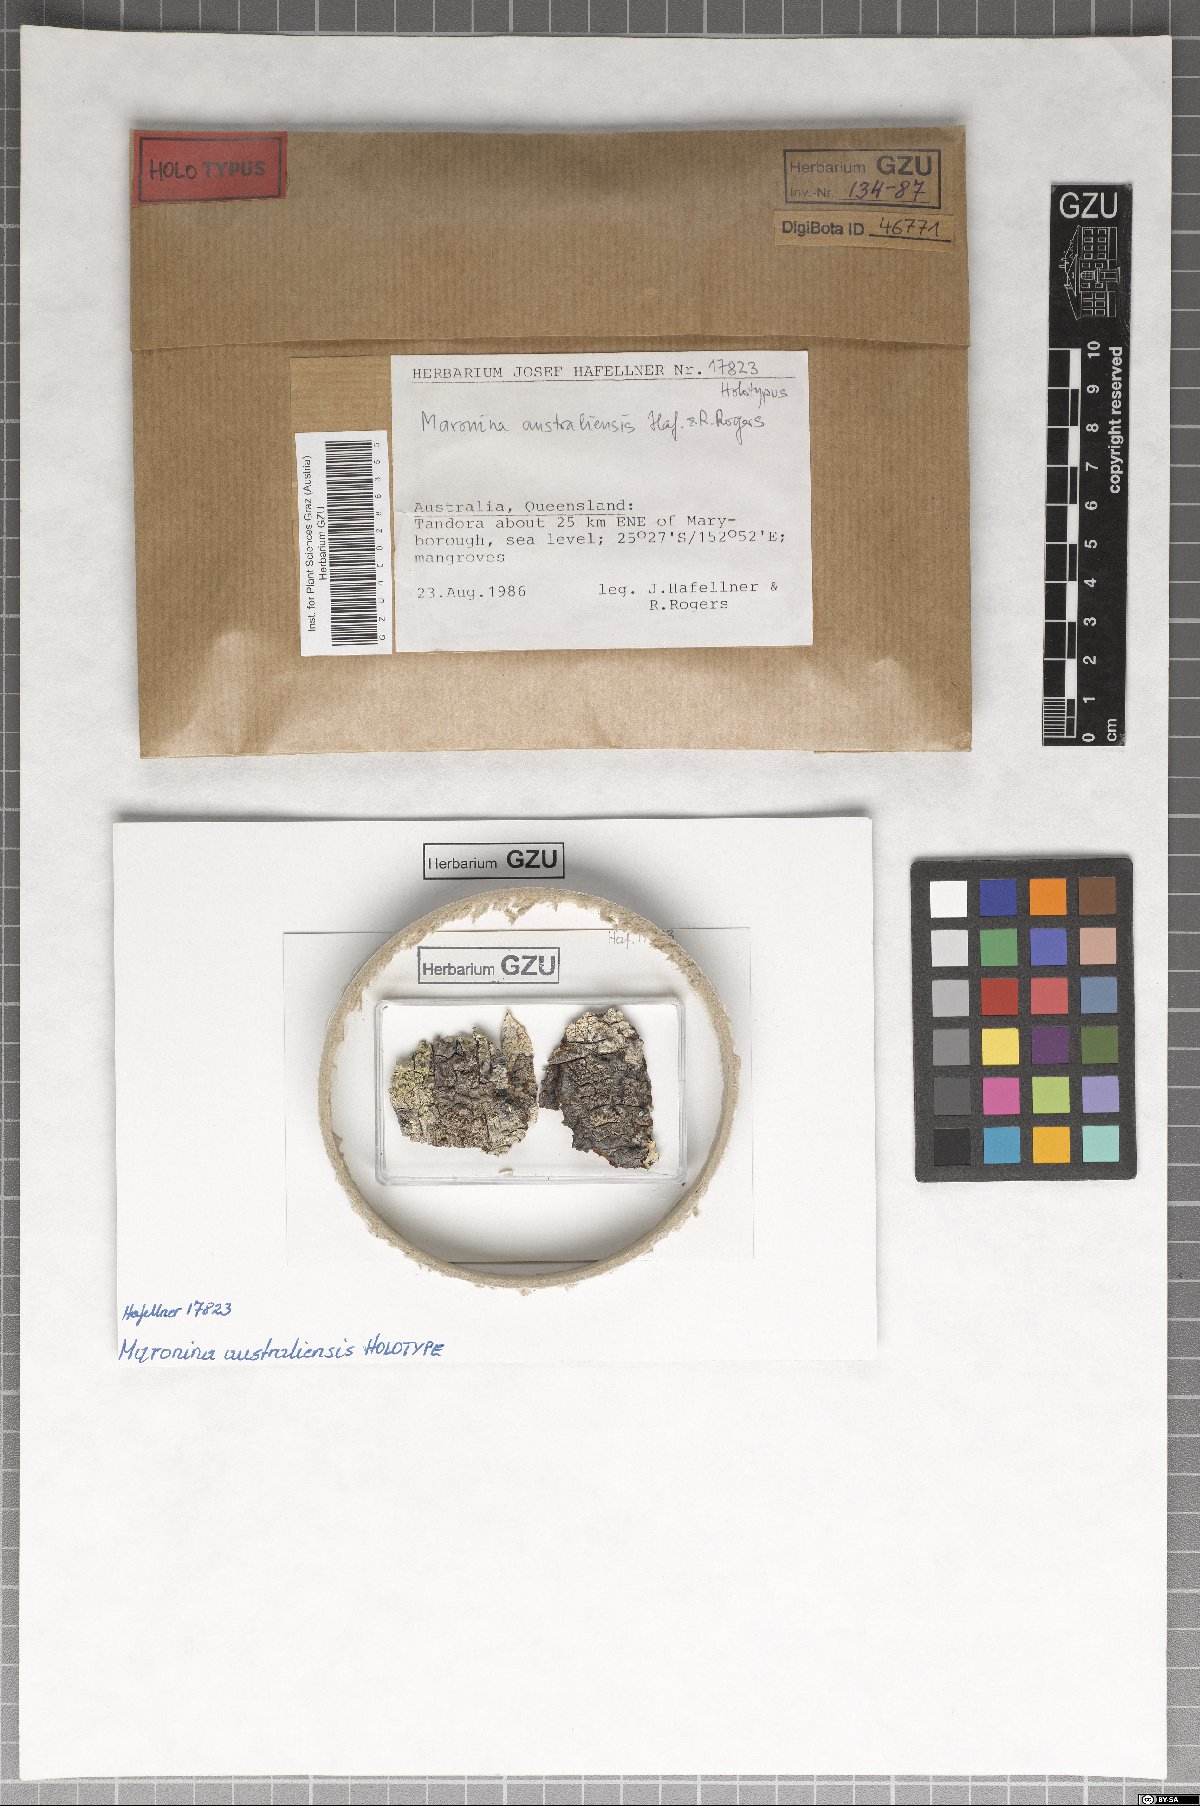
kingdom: Fungi
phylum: Ascomycota
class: Lecanoromycetes
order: Lecanorales
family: Parmeliaceae
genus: Protoparmelia
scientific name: Protoparmelia australiensis
